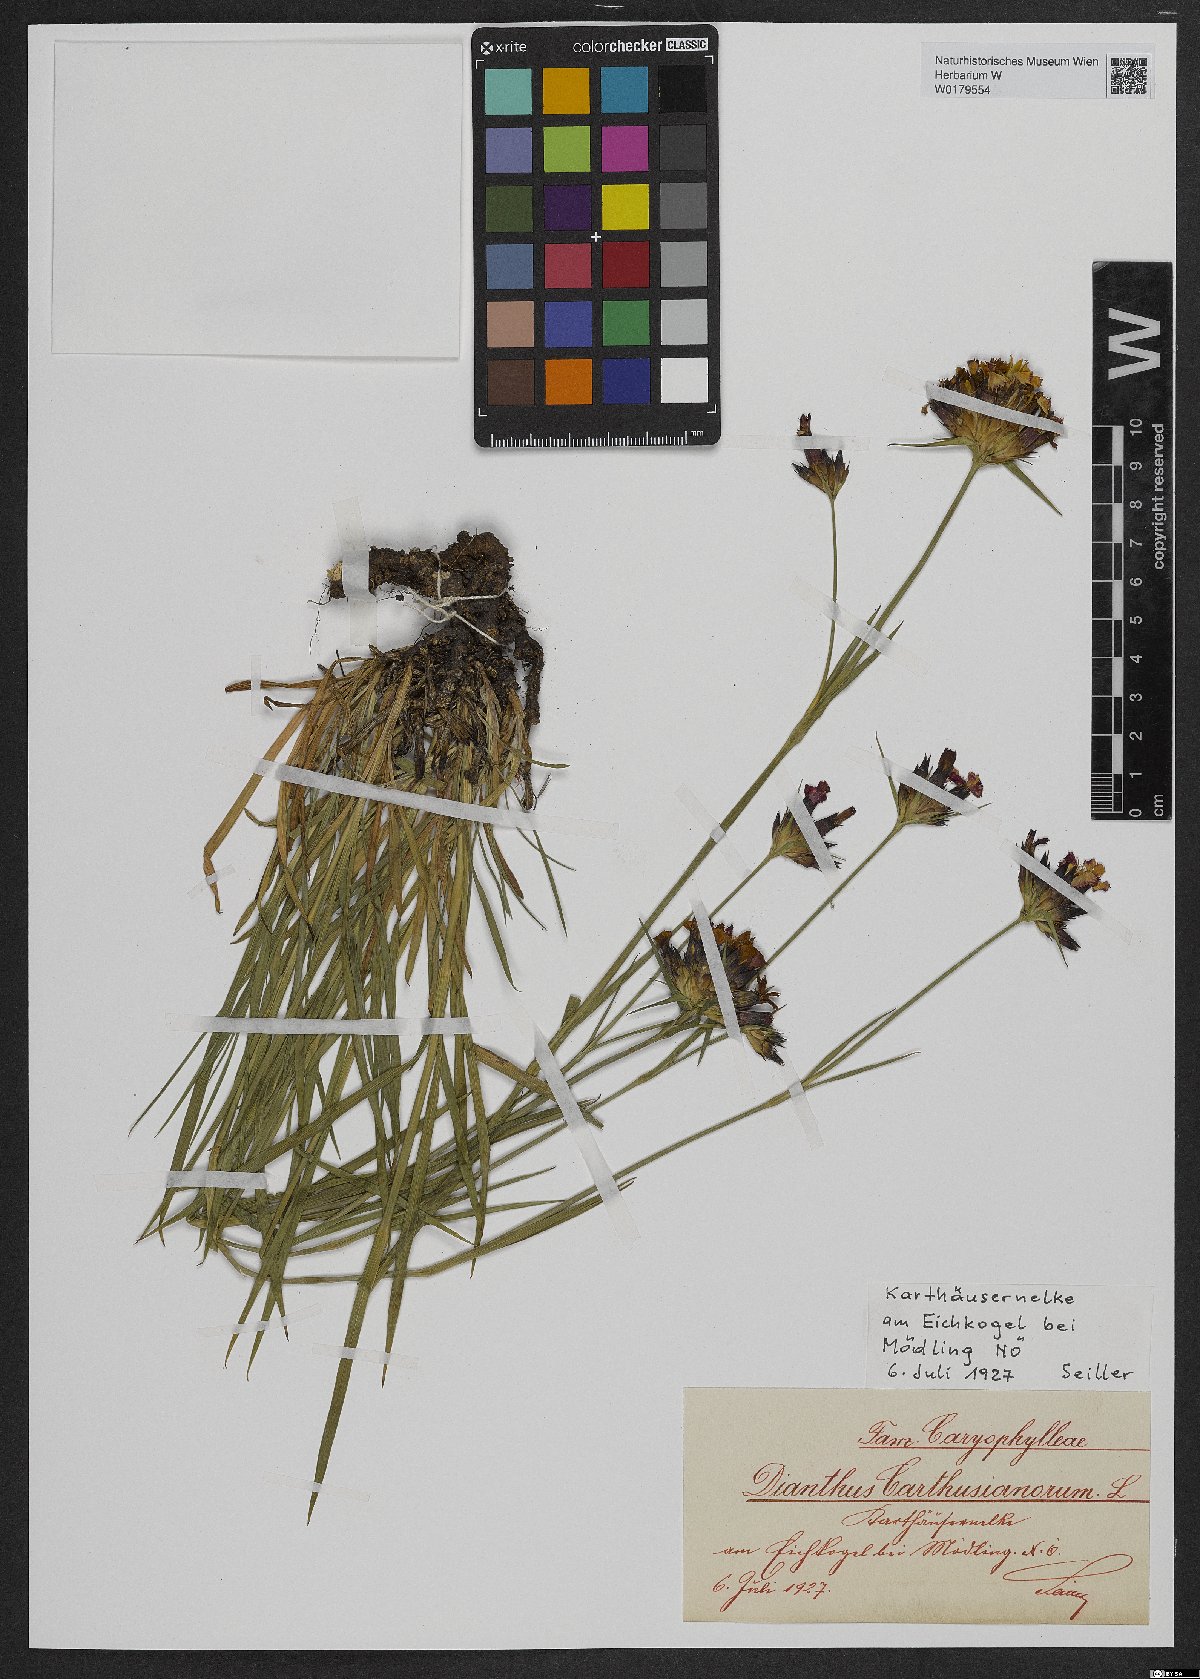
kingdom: Plantae
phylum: Tracheophyta
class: Magnoliopsida
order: Caryophyllales
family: Caryophyllaceae
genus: Dianthus
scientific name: Dianthus carthusianorum
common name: Carthusian pink
